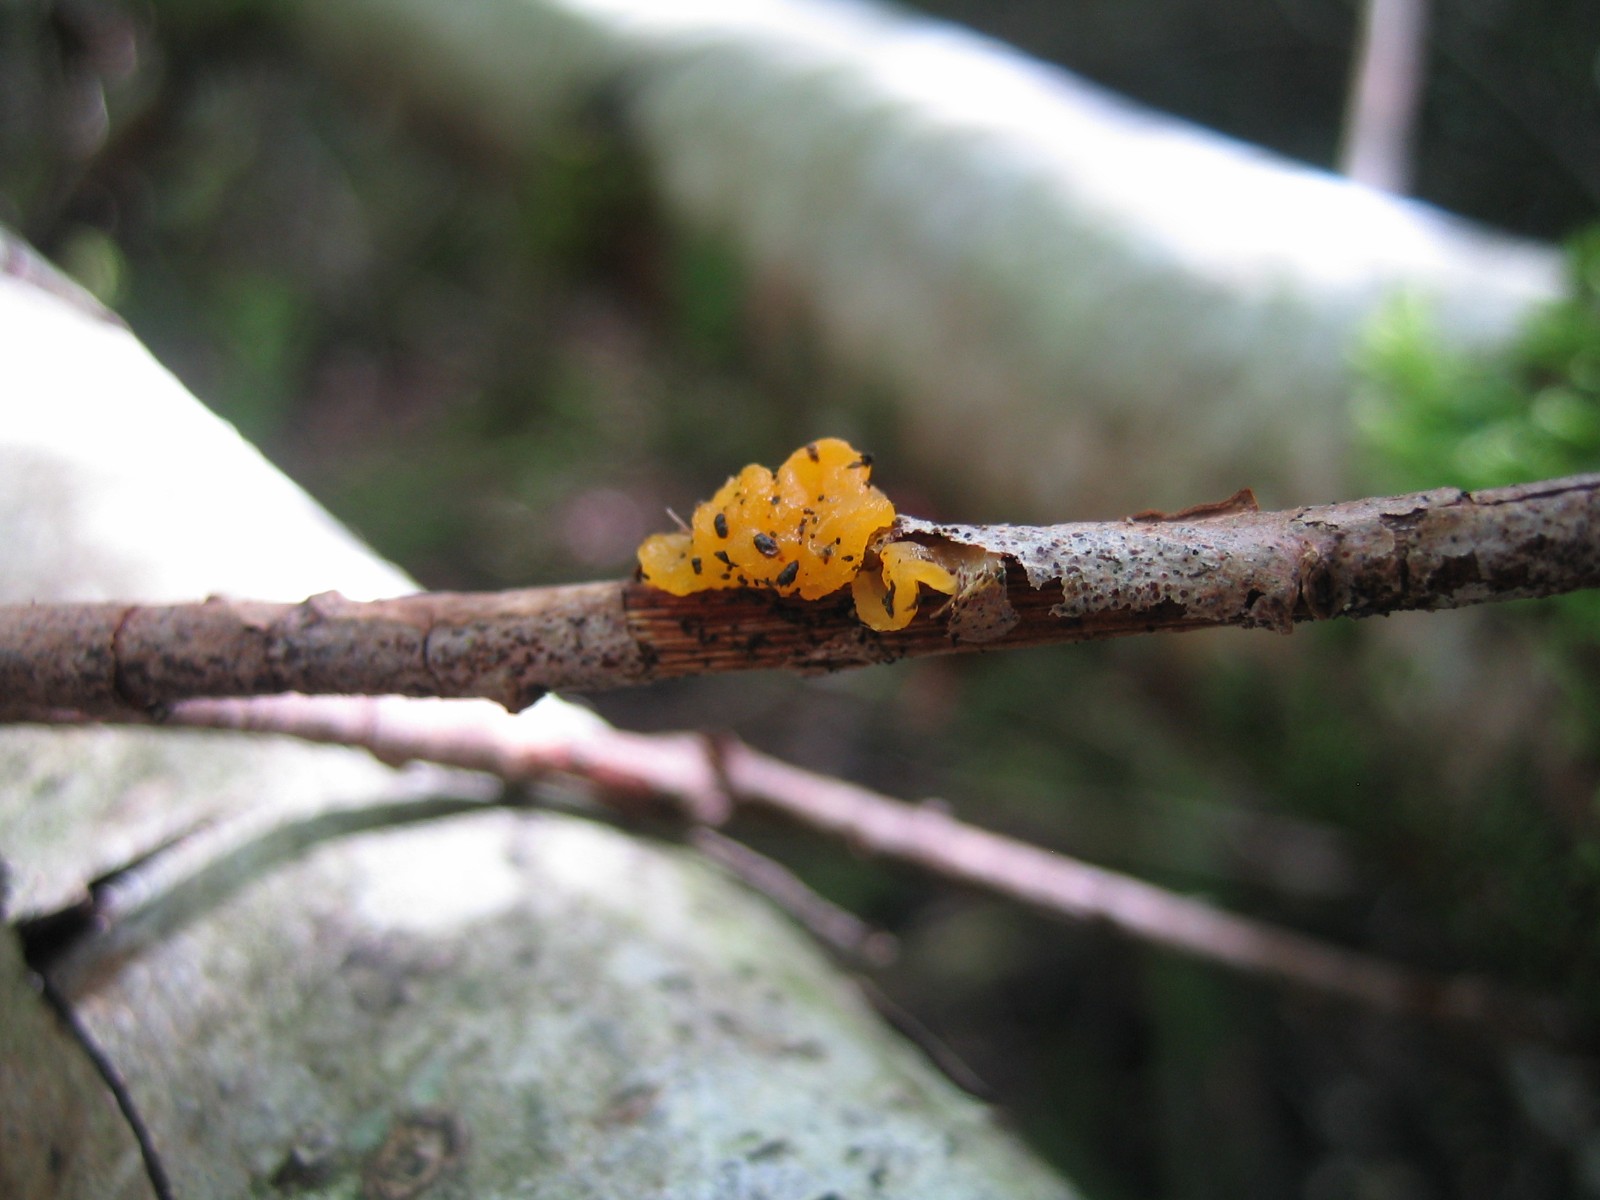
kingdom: Fungi
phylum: Basidiomycota
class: Tremellomycetes
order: Tremellales
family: Tremellaceae
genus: Tremella
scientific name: Tremella mesenterica
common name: gul bævresvamp
